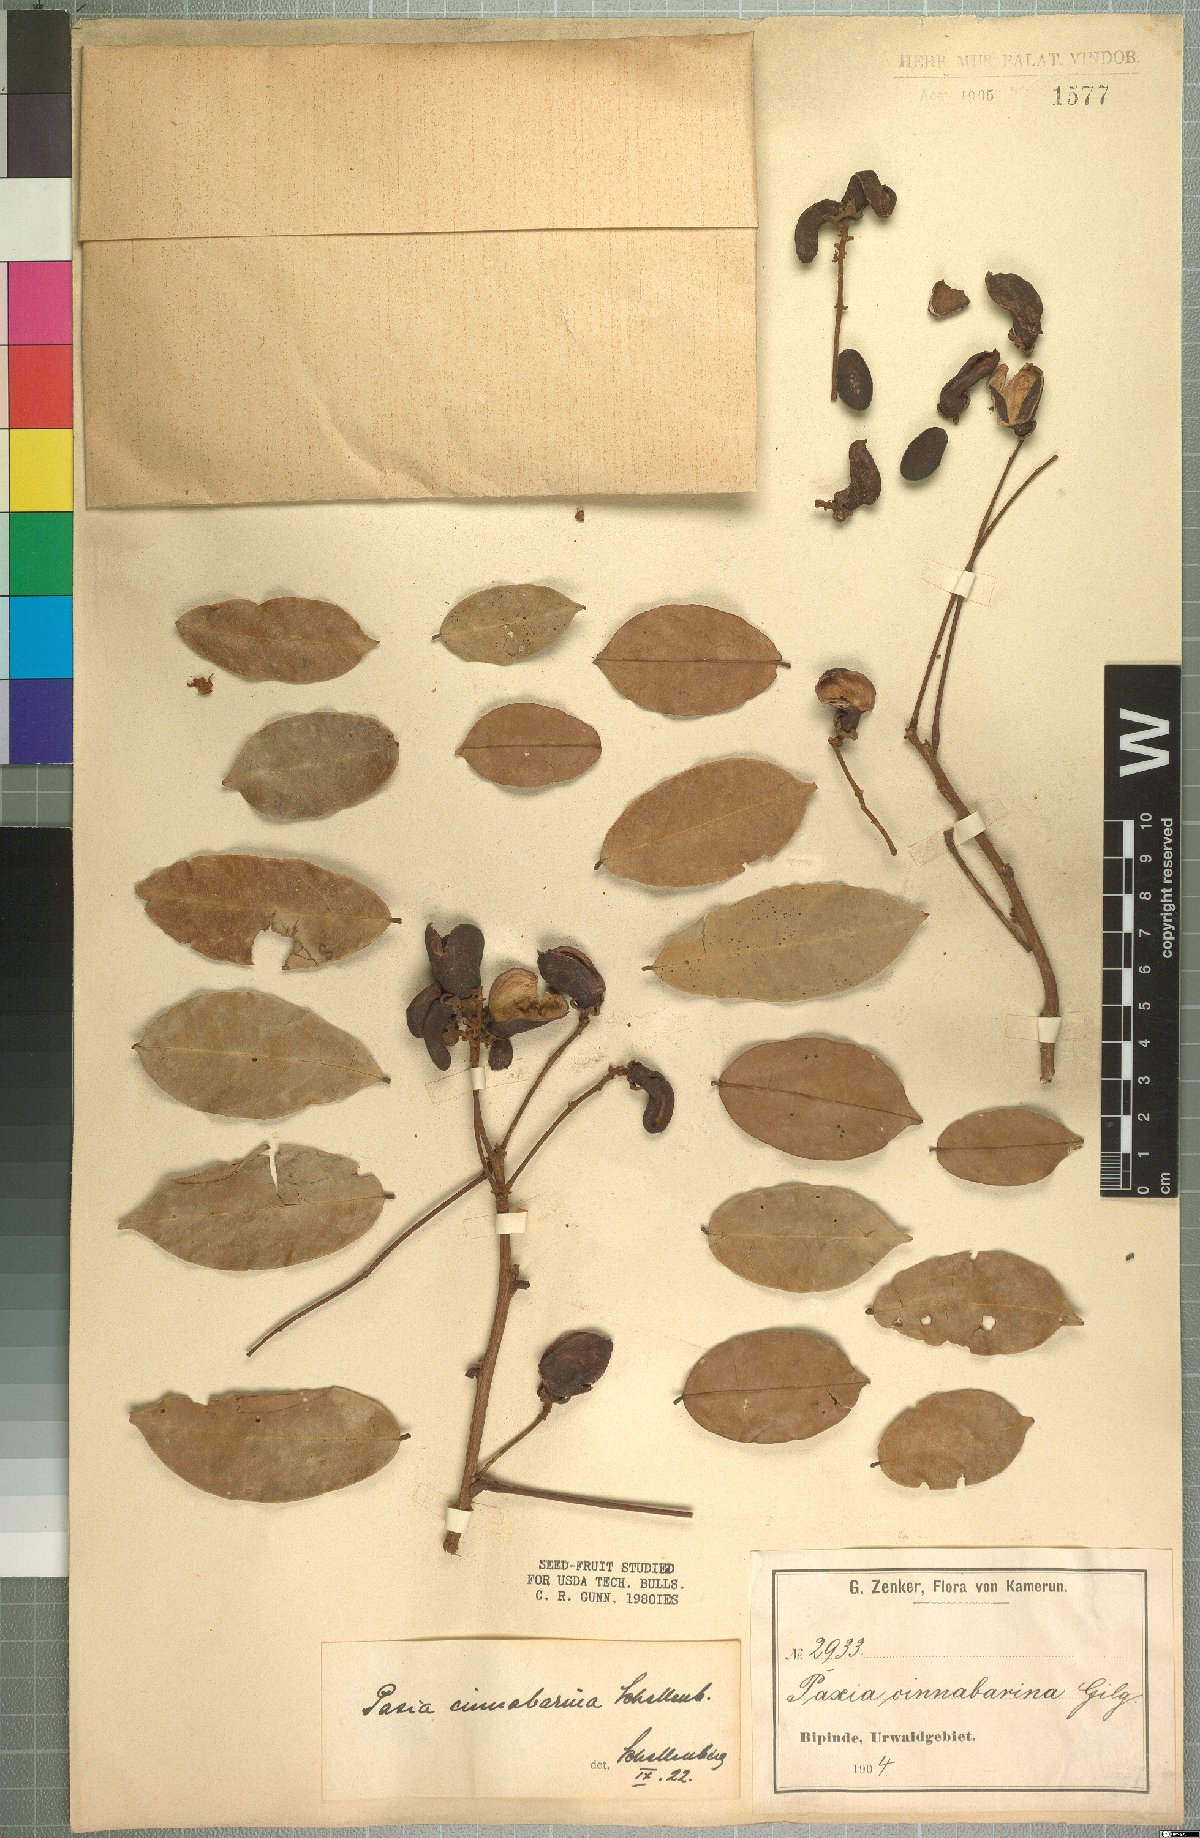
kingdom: Plantae
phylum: Tracheophyta
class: Magnoliopsida
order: Oxalidales
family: Connaraceae
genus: Rourea
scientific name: Rourea myriantha
